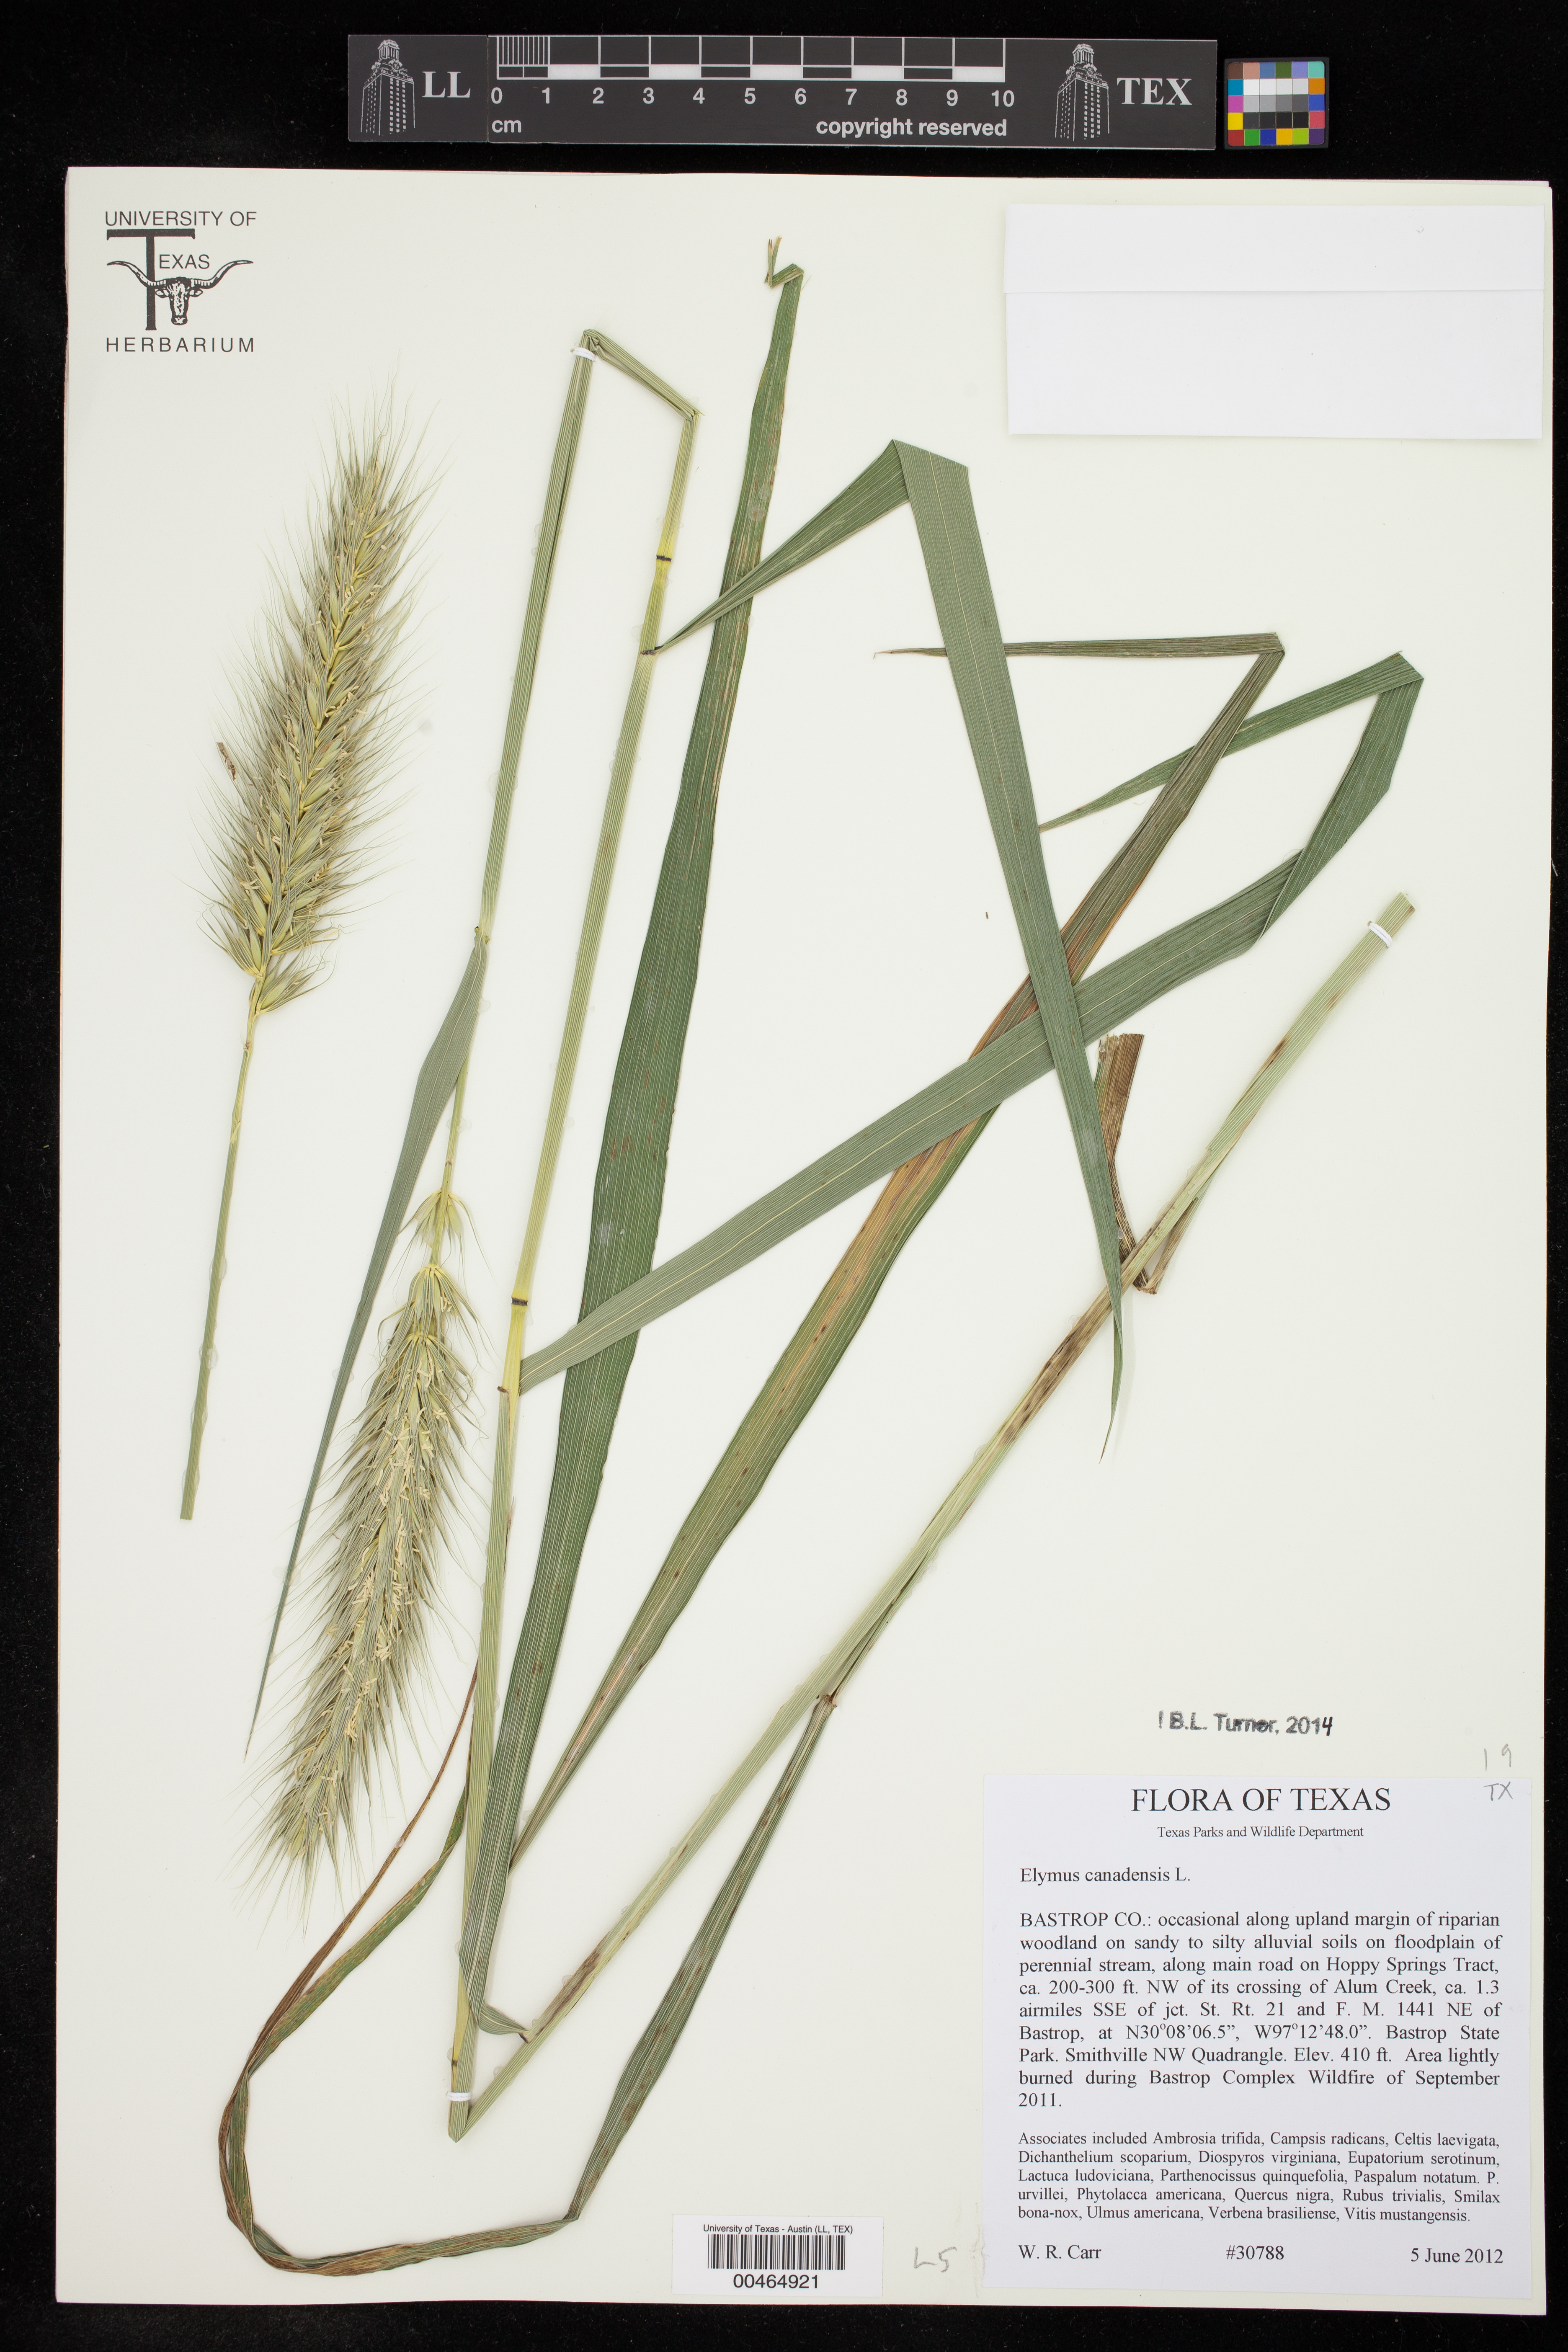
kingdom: Plantae
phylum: Tracheophyta
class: Liliopsida
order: Poales
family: Poaceae
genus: Elymus
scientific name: Elymus canadensis
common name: Canada wild rye
